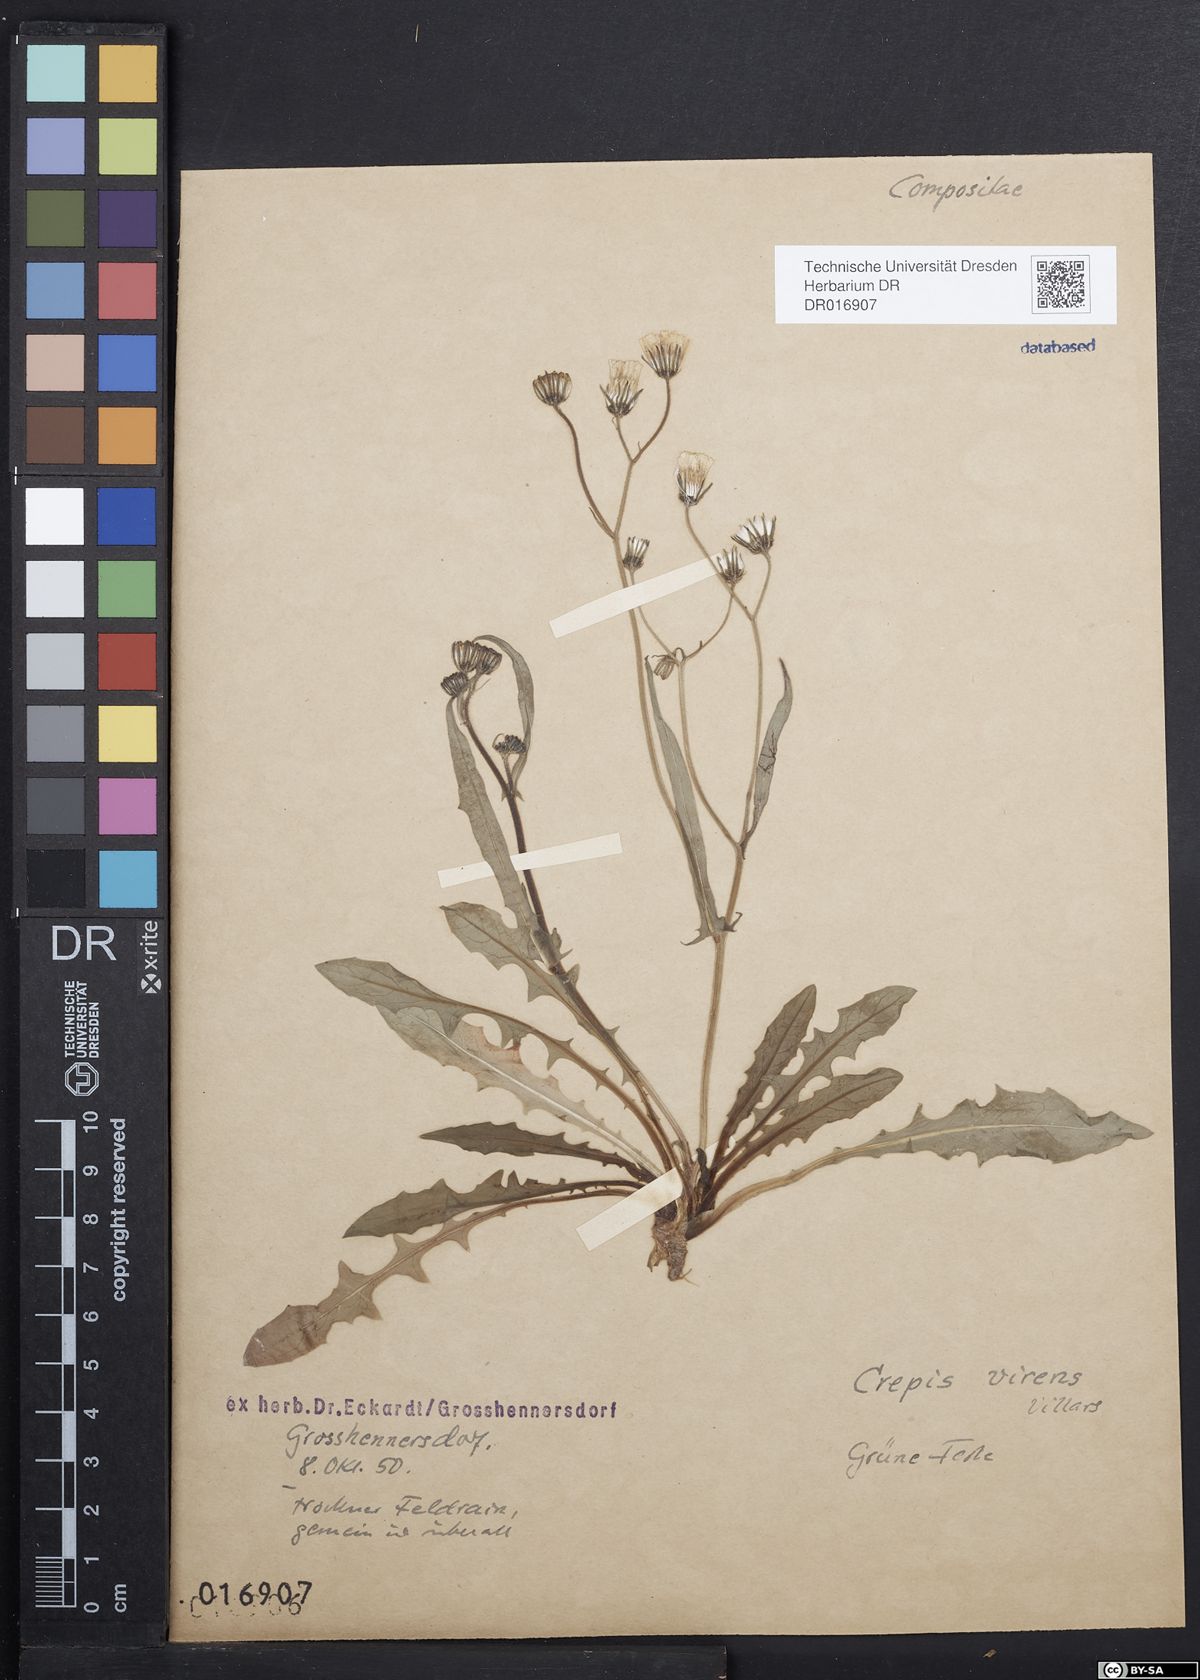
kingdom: Plantae
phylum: Tracheophyta
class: Magnoliopsida
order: Asterales
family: Asteraceae
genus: Crepis
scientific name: Crepis capillaris
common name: Smooth hawksbeard
